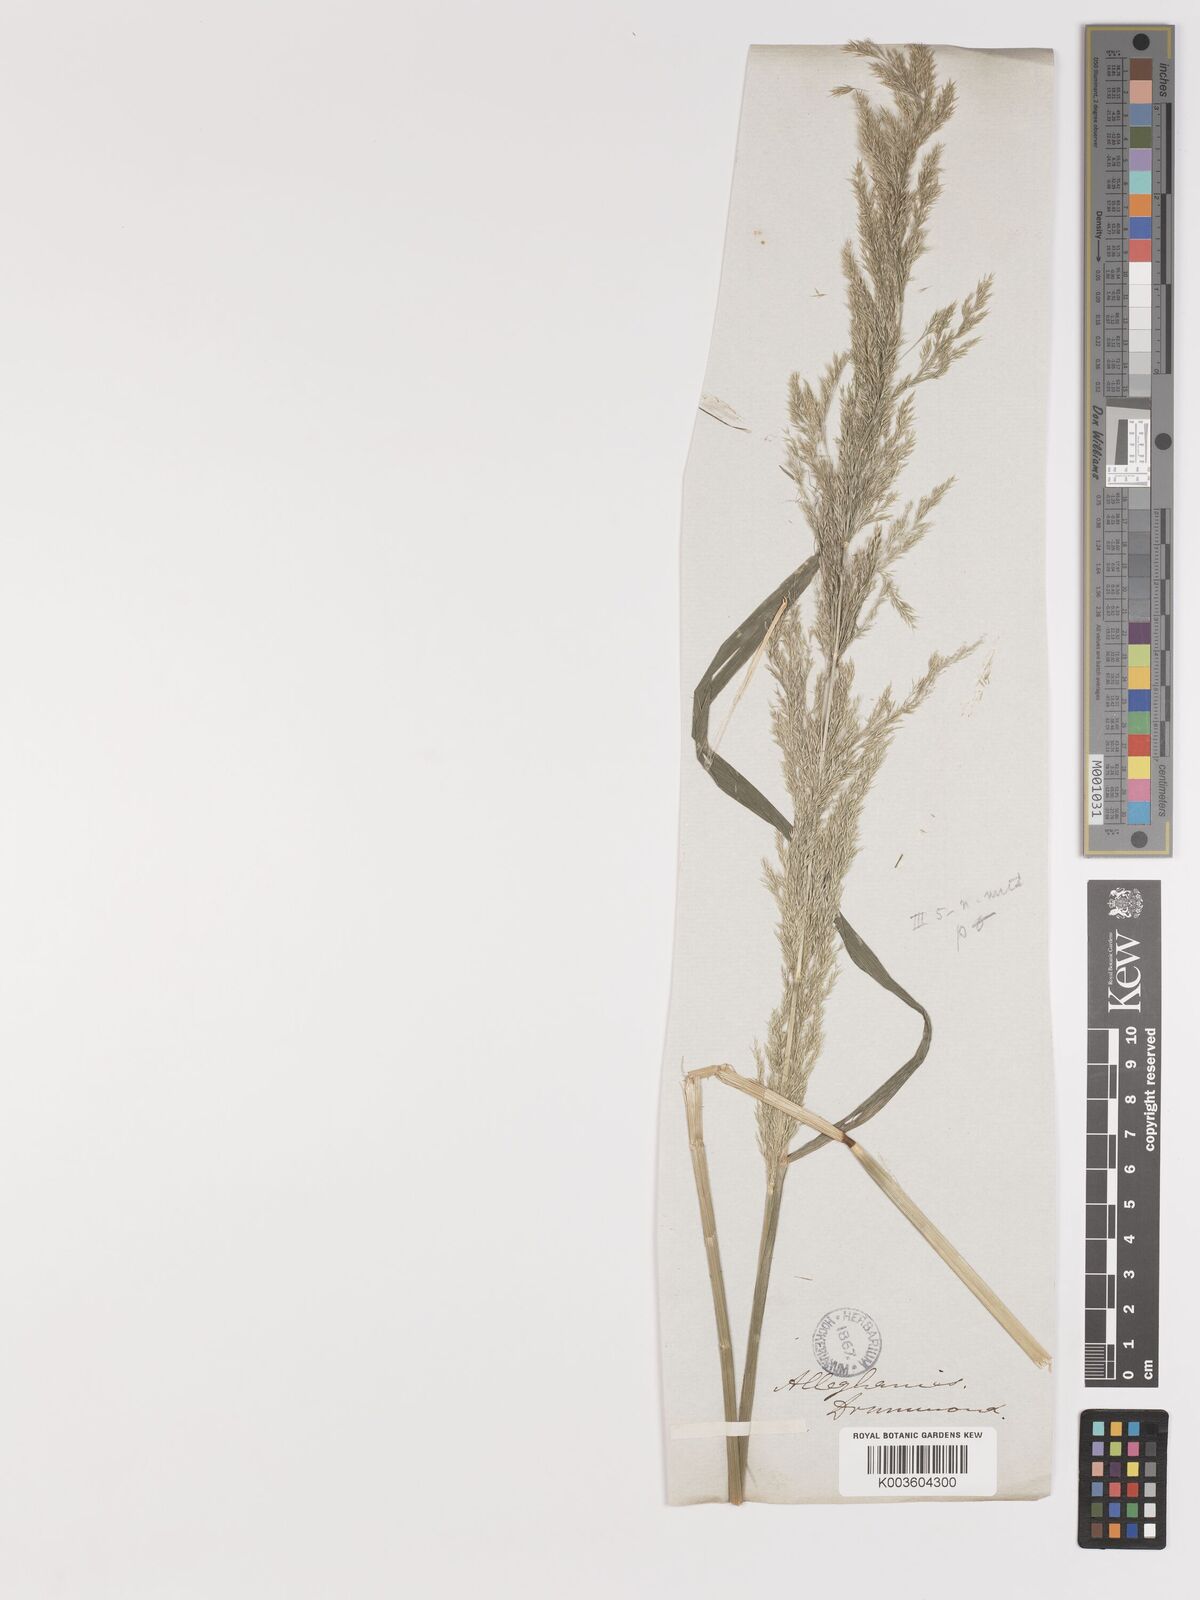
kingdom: Plantae
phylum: Tracheophyta
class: Liliopsida
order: Poales
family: Poaceae
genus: Agrostis
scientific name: Agrostis exarata
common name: Spike bent
